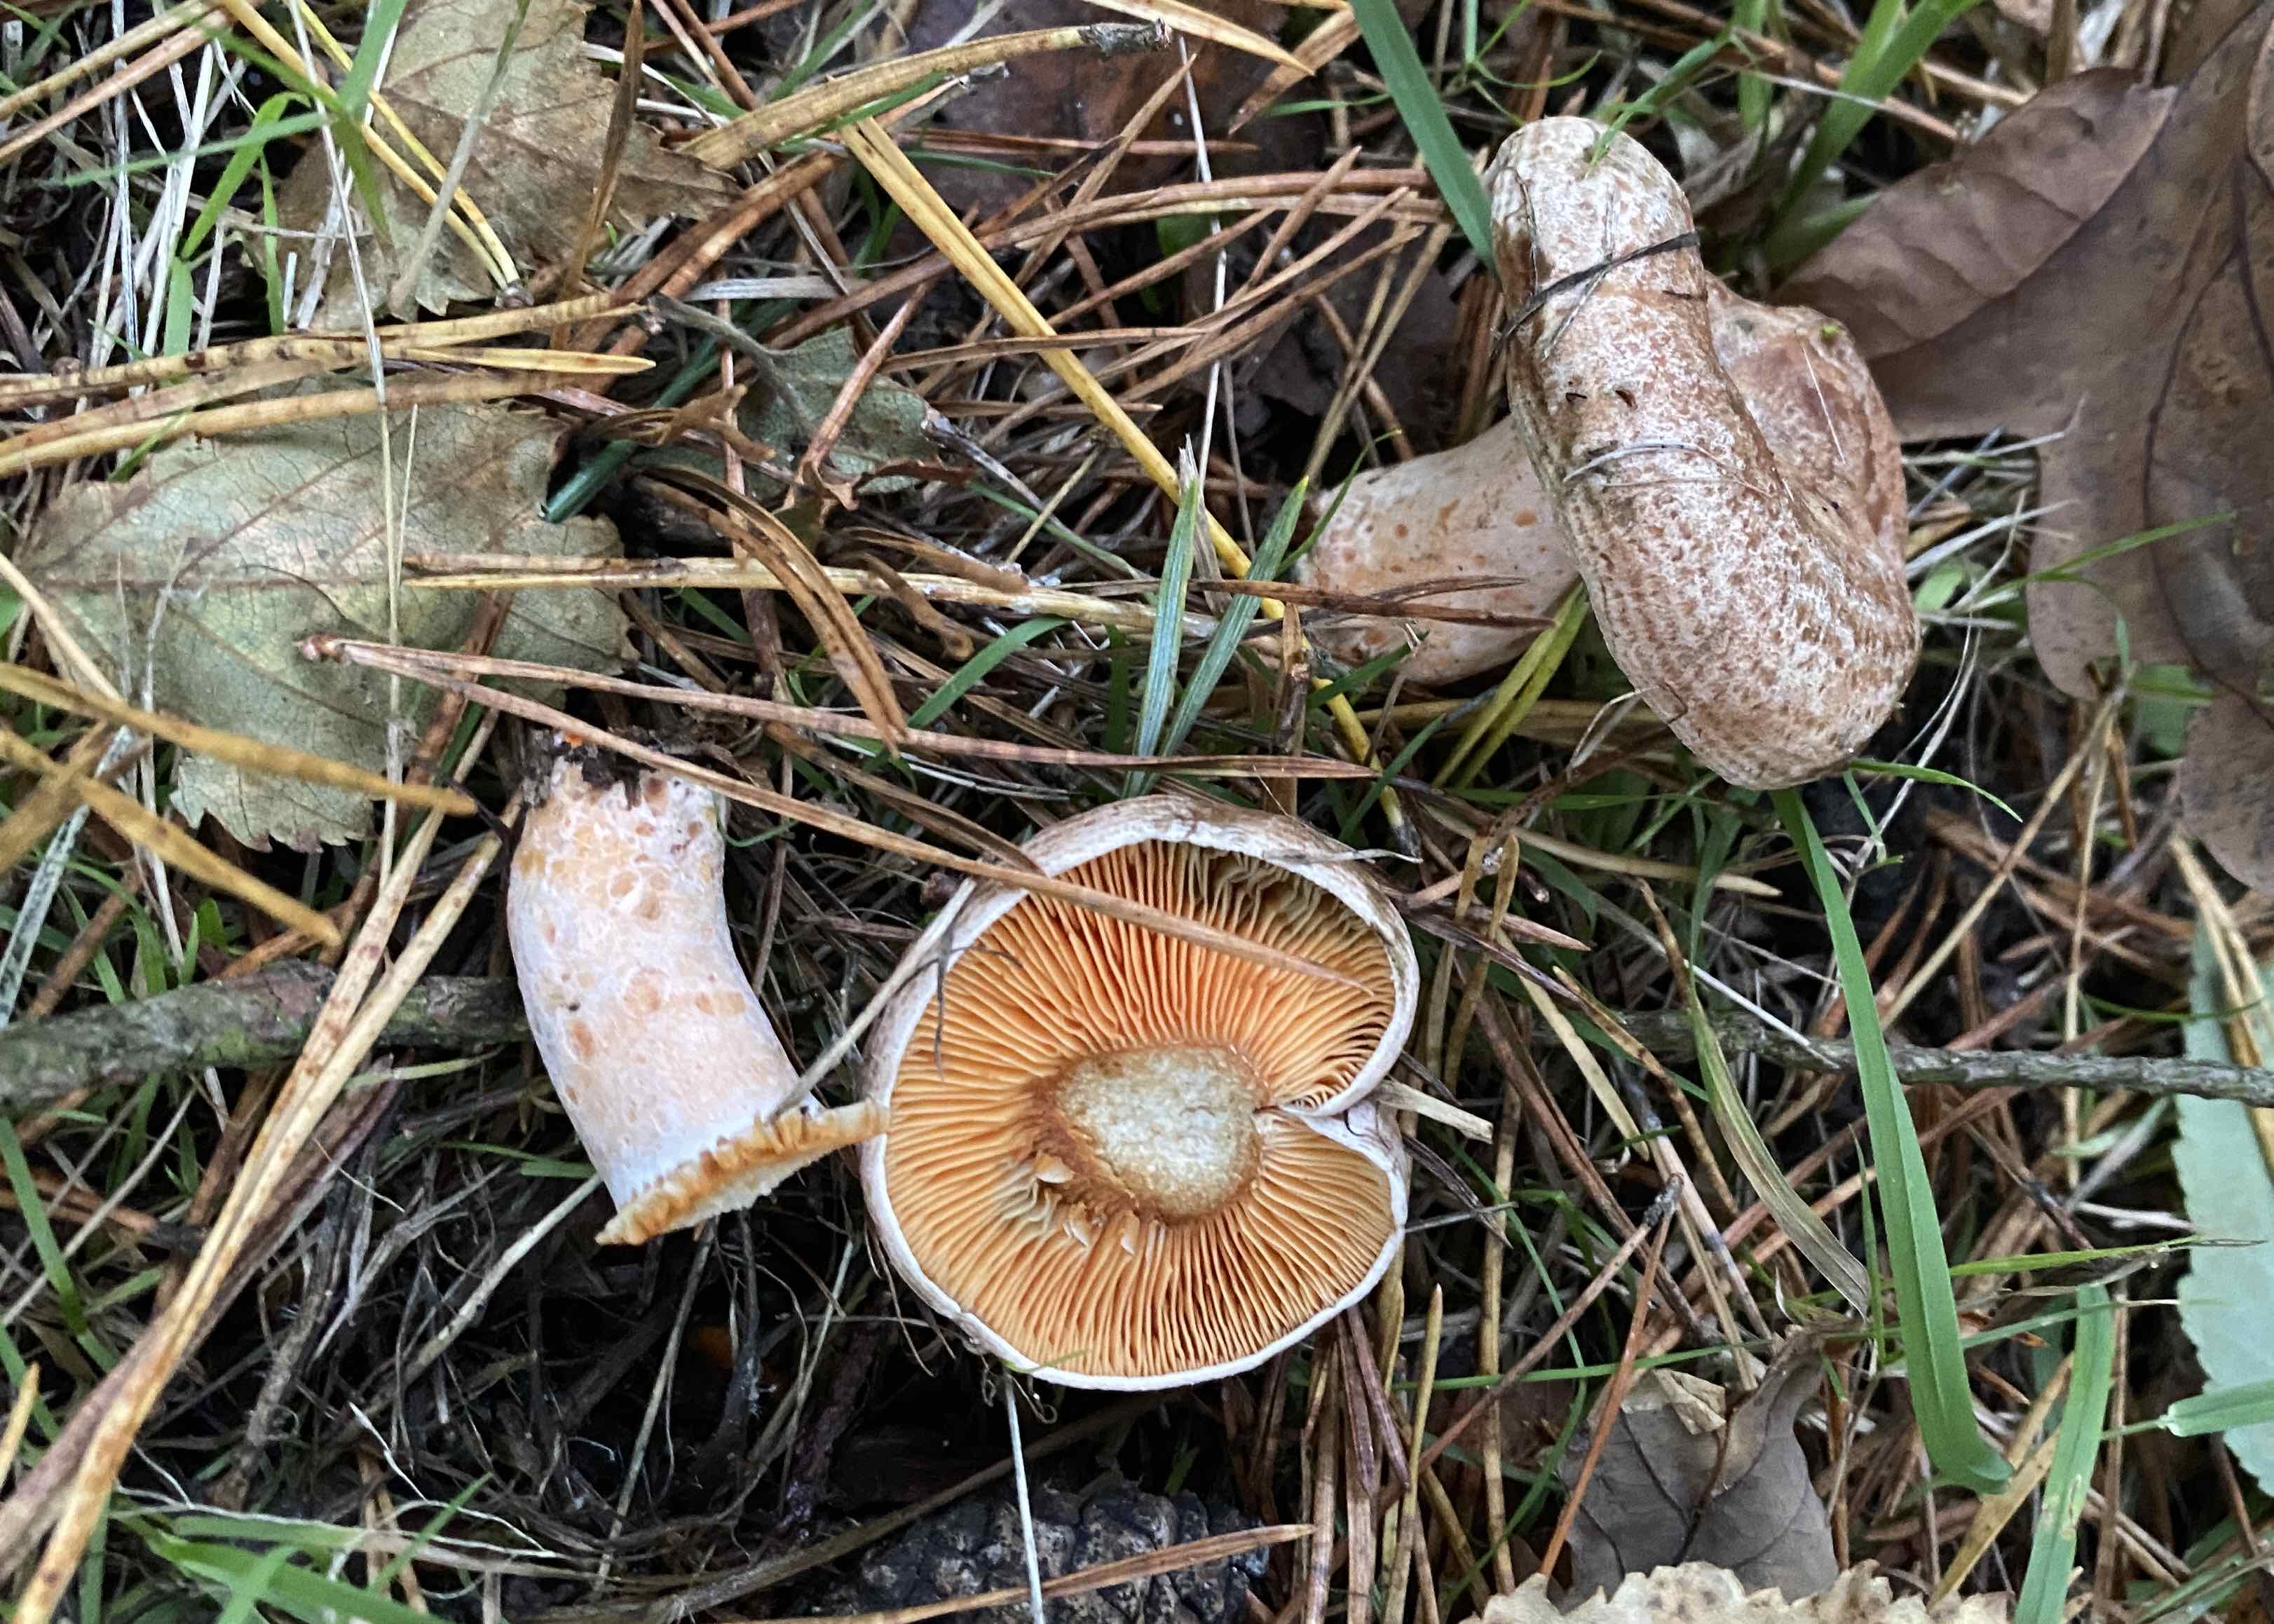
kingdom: Fungi
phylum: Basidiomycota
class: Agaricomycetes
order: Russulales
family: Russulaceae
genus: Lactarius
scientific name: Lactarius quieticolor
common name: tvefarvet mælkehat
